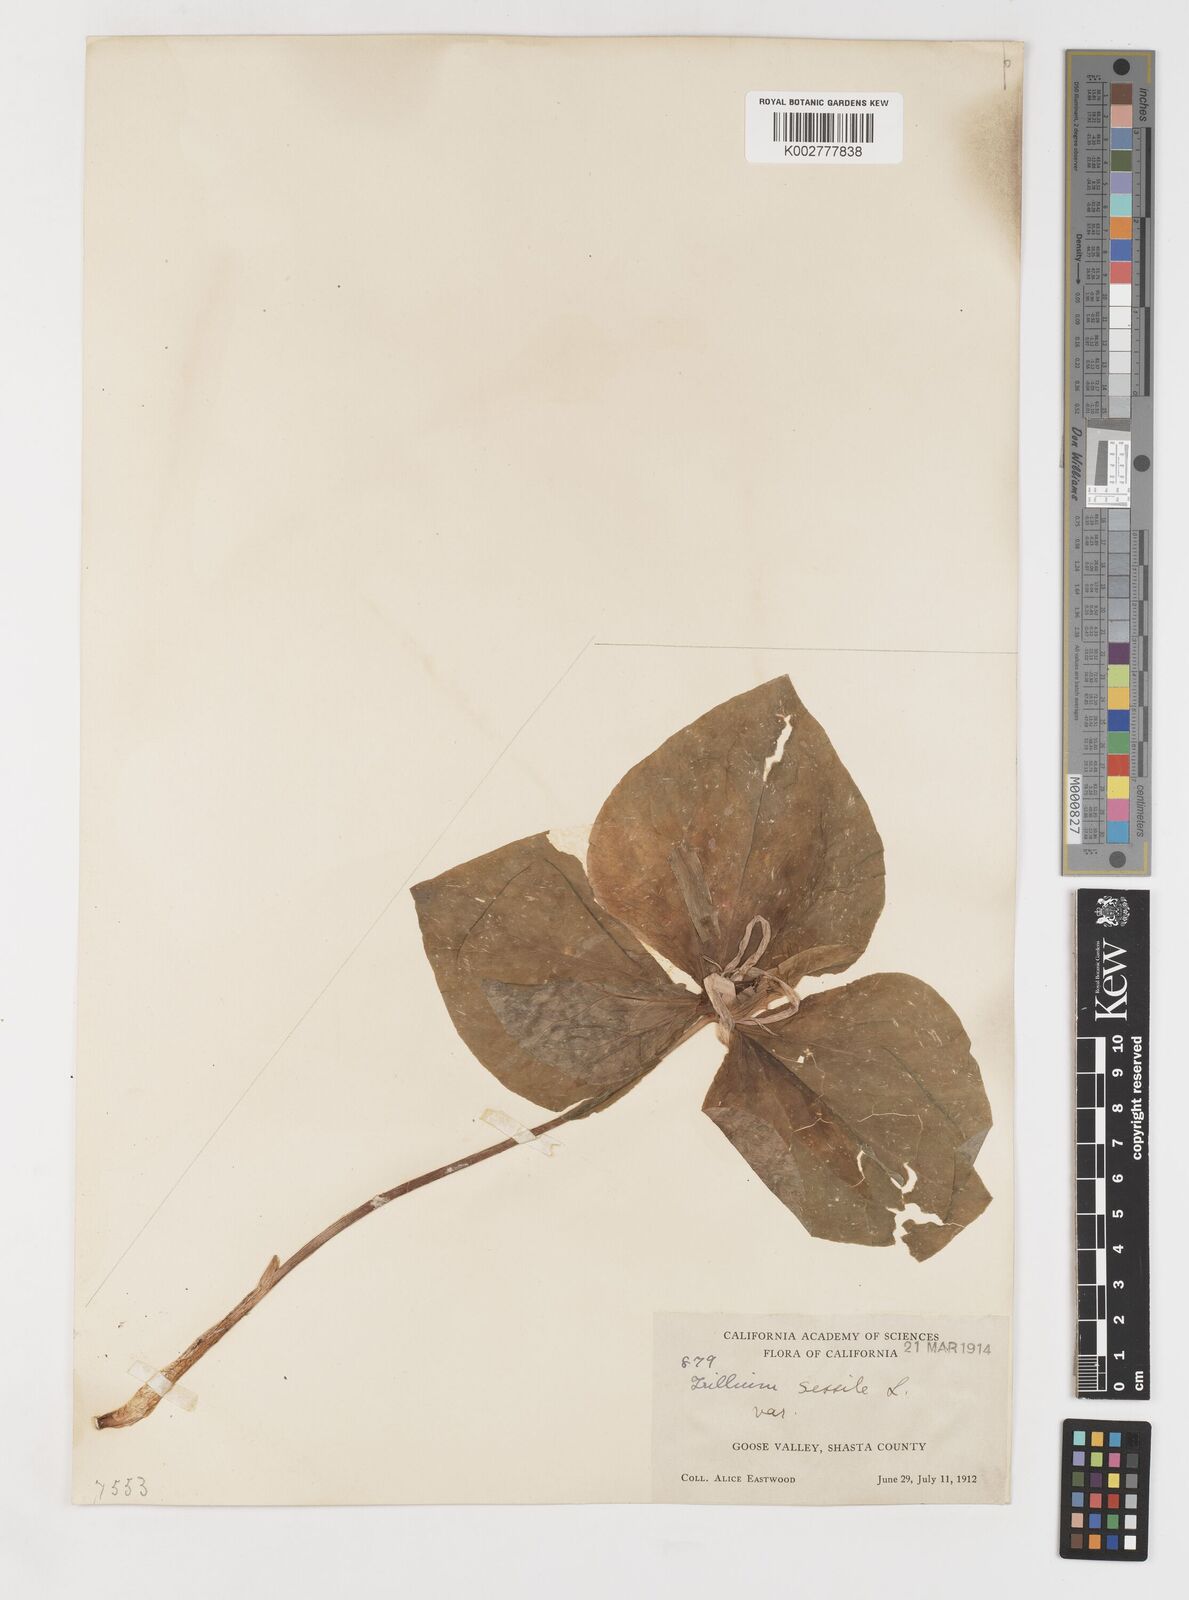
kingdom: Plantae
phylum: Tracheophyta
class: Liliopsida
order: Liliales
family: Melanthiaceae
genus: Trillium
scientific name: Trillium chloropetalum
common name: Giant trillium
